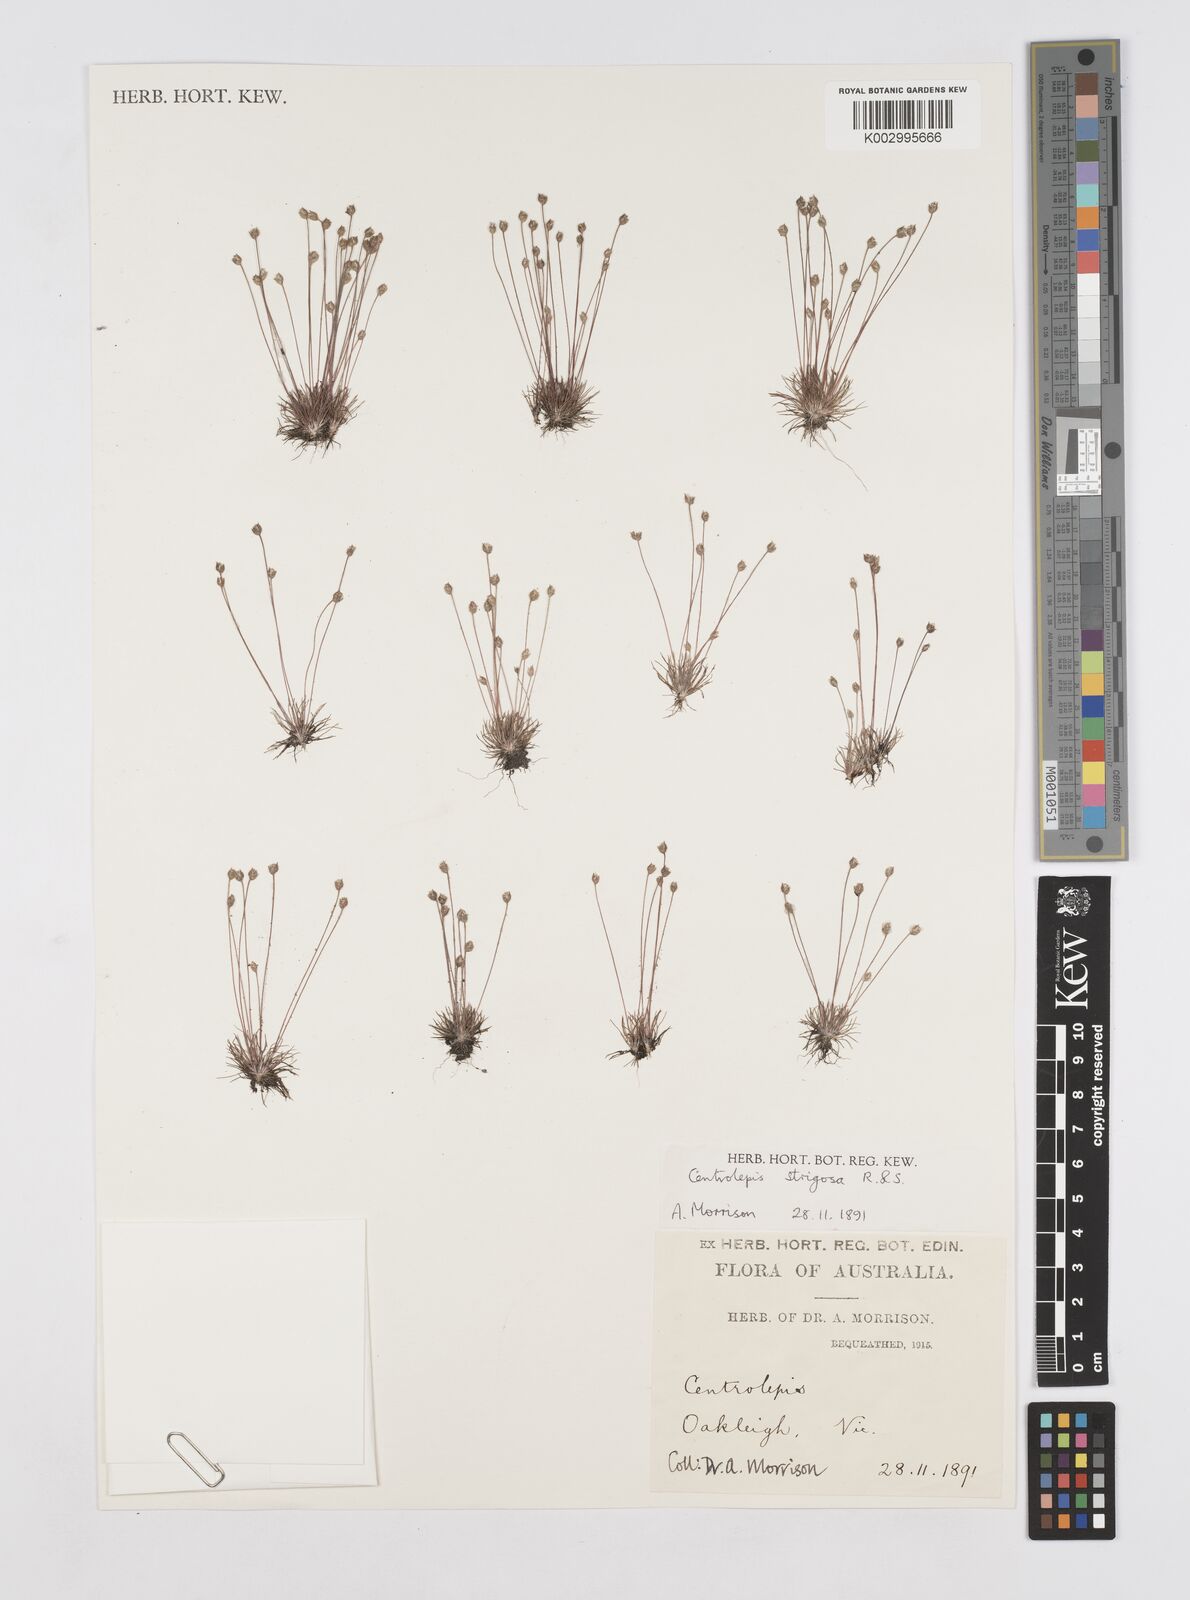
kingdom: Plantae
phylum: Tracheophyta
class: Liliopsida
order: Poales
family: Restionaceae
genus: Centrolepis
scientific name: Centrolepis strigosa
